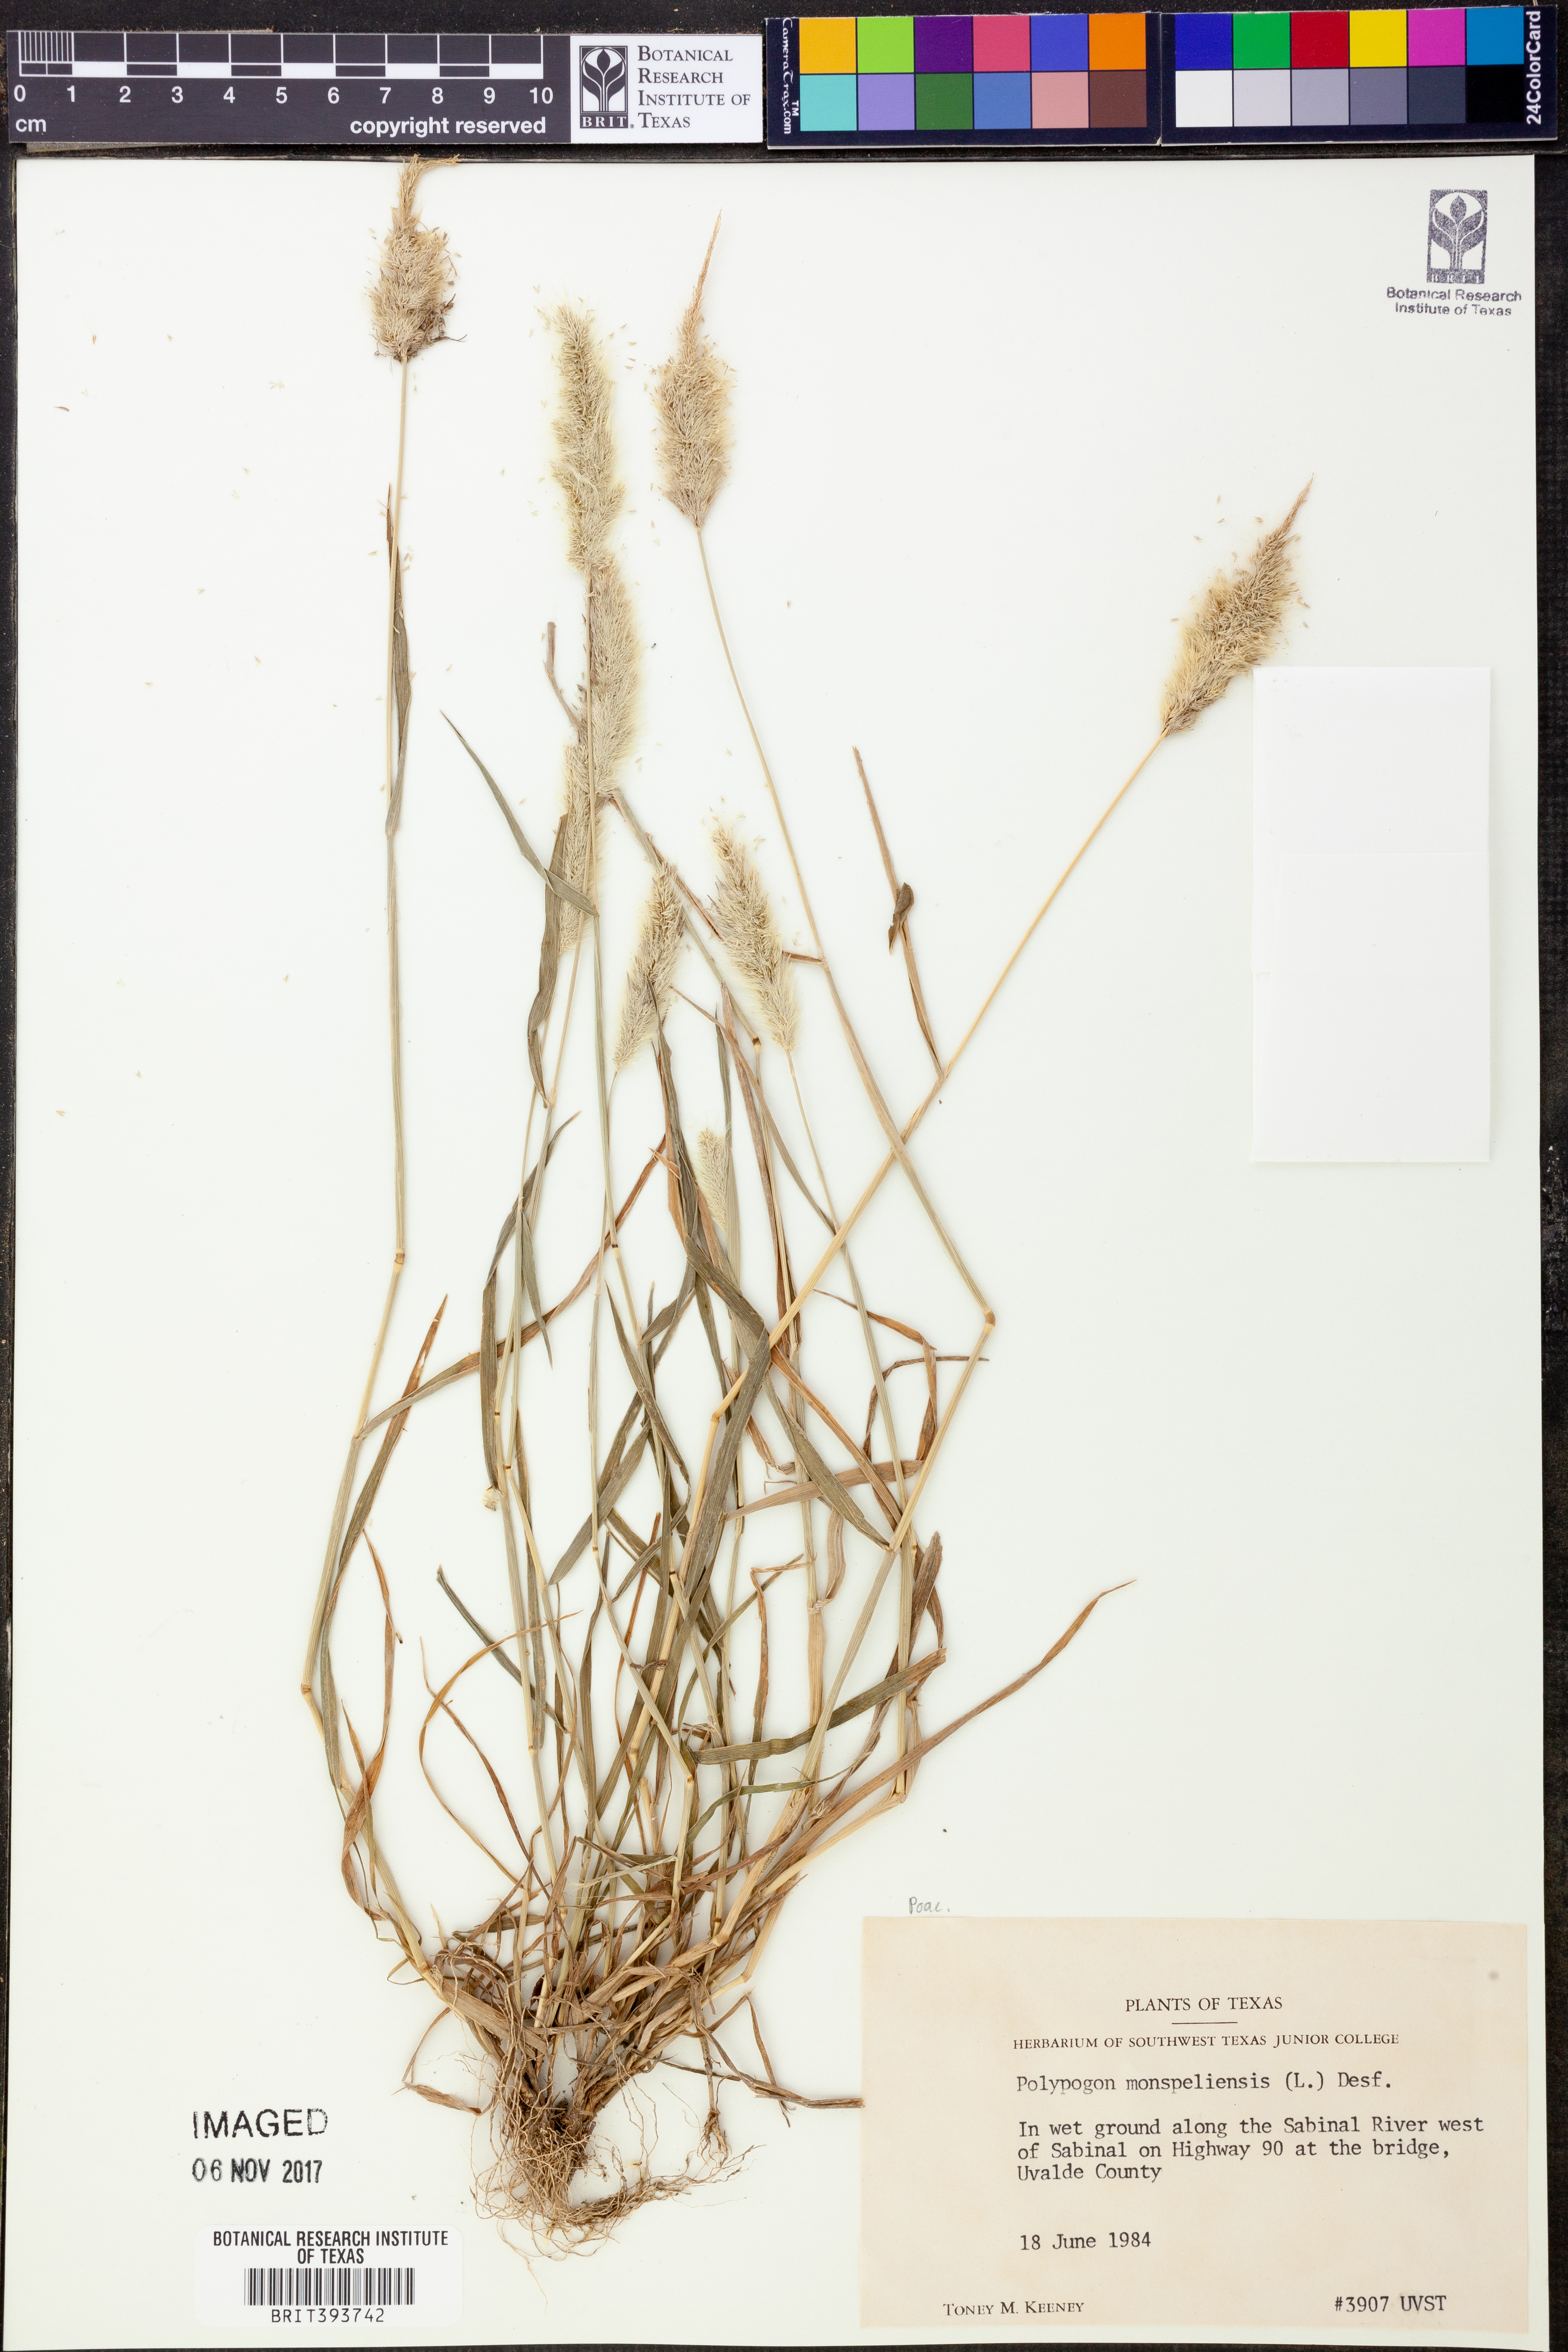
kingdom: Plantae
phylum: Tracheophyta
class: Liliopsida
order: Poales
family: Poaceae
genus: Polypogon
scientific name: Polypogon monspeliensis
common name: Annual rabbitsfoot grass
